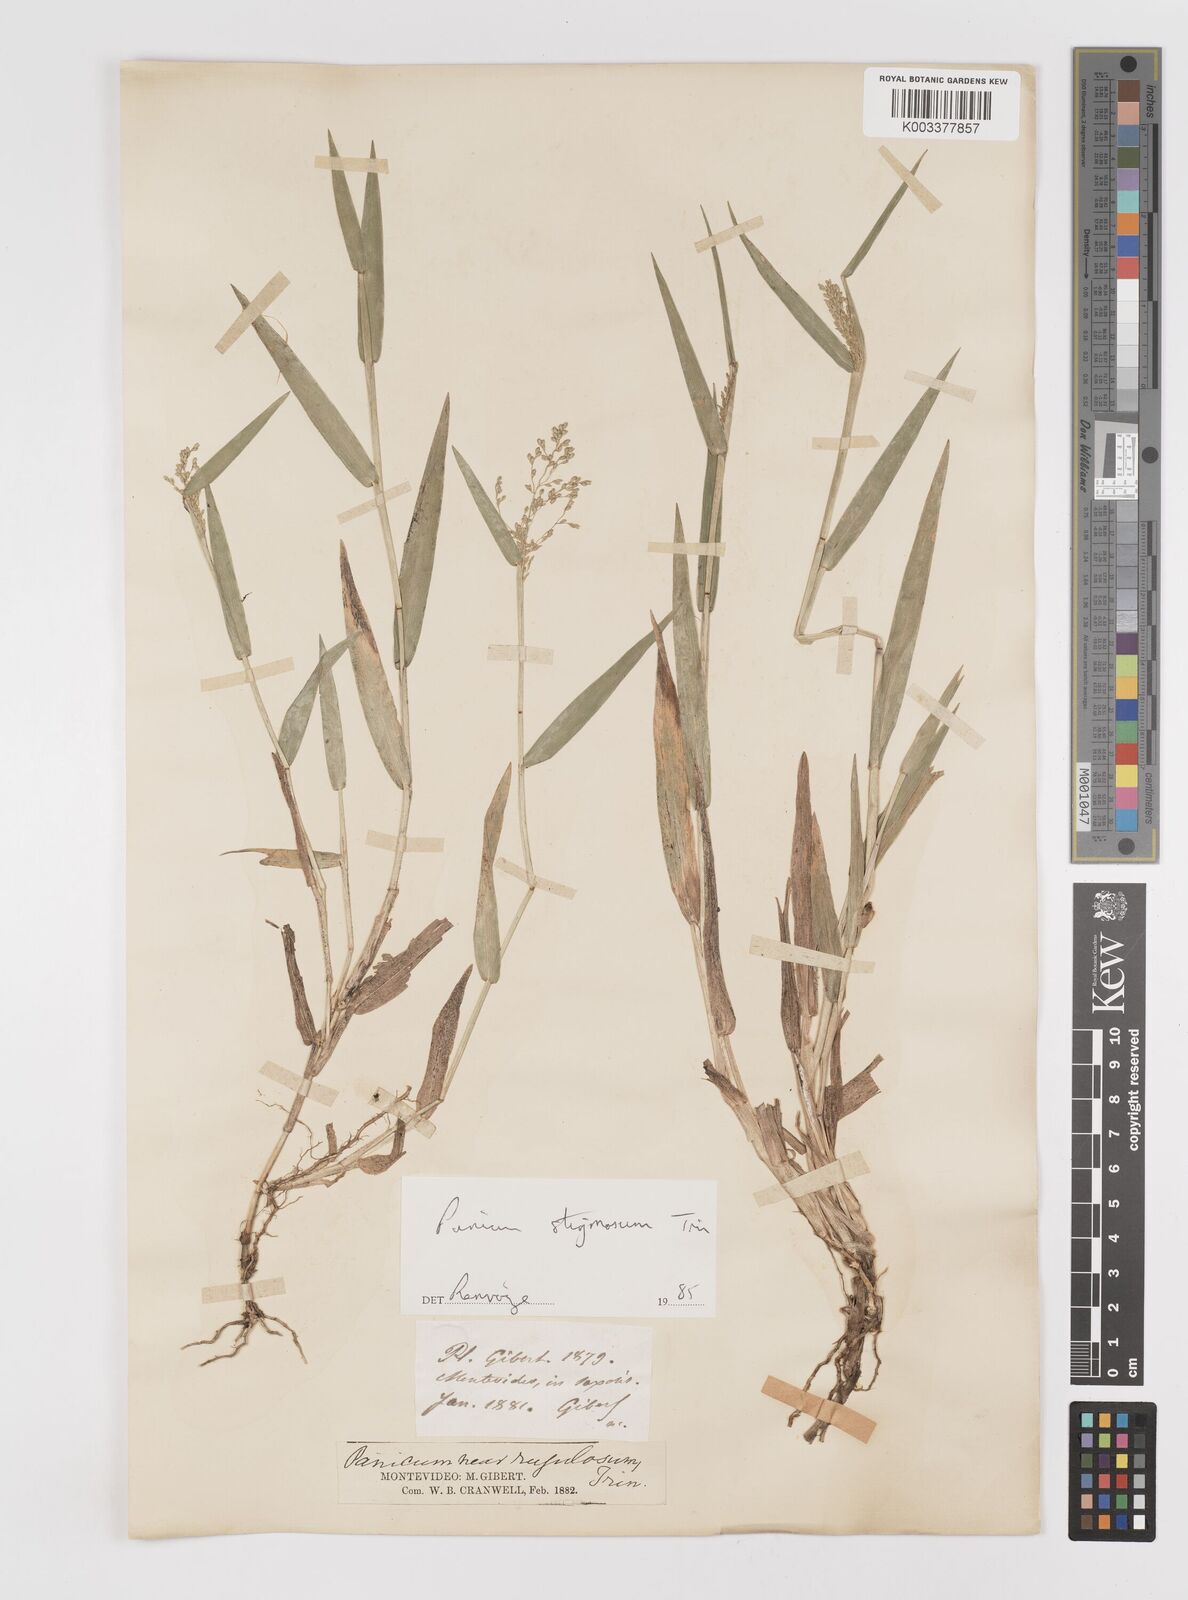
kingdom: Plantae
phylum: Tracheophyta
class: Liliopsida
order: Poales
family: Poaceae
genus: Dichanthelium
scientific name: Dichanthelium stigmosum
